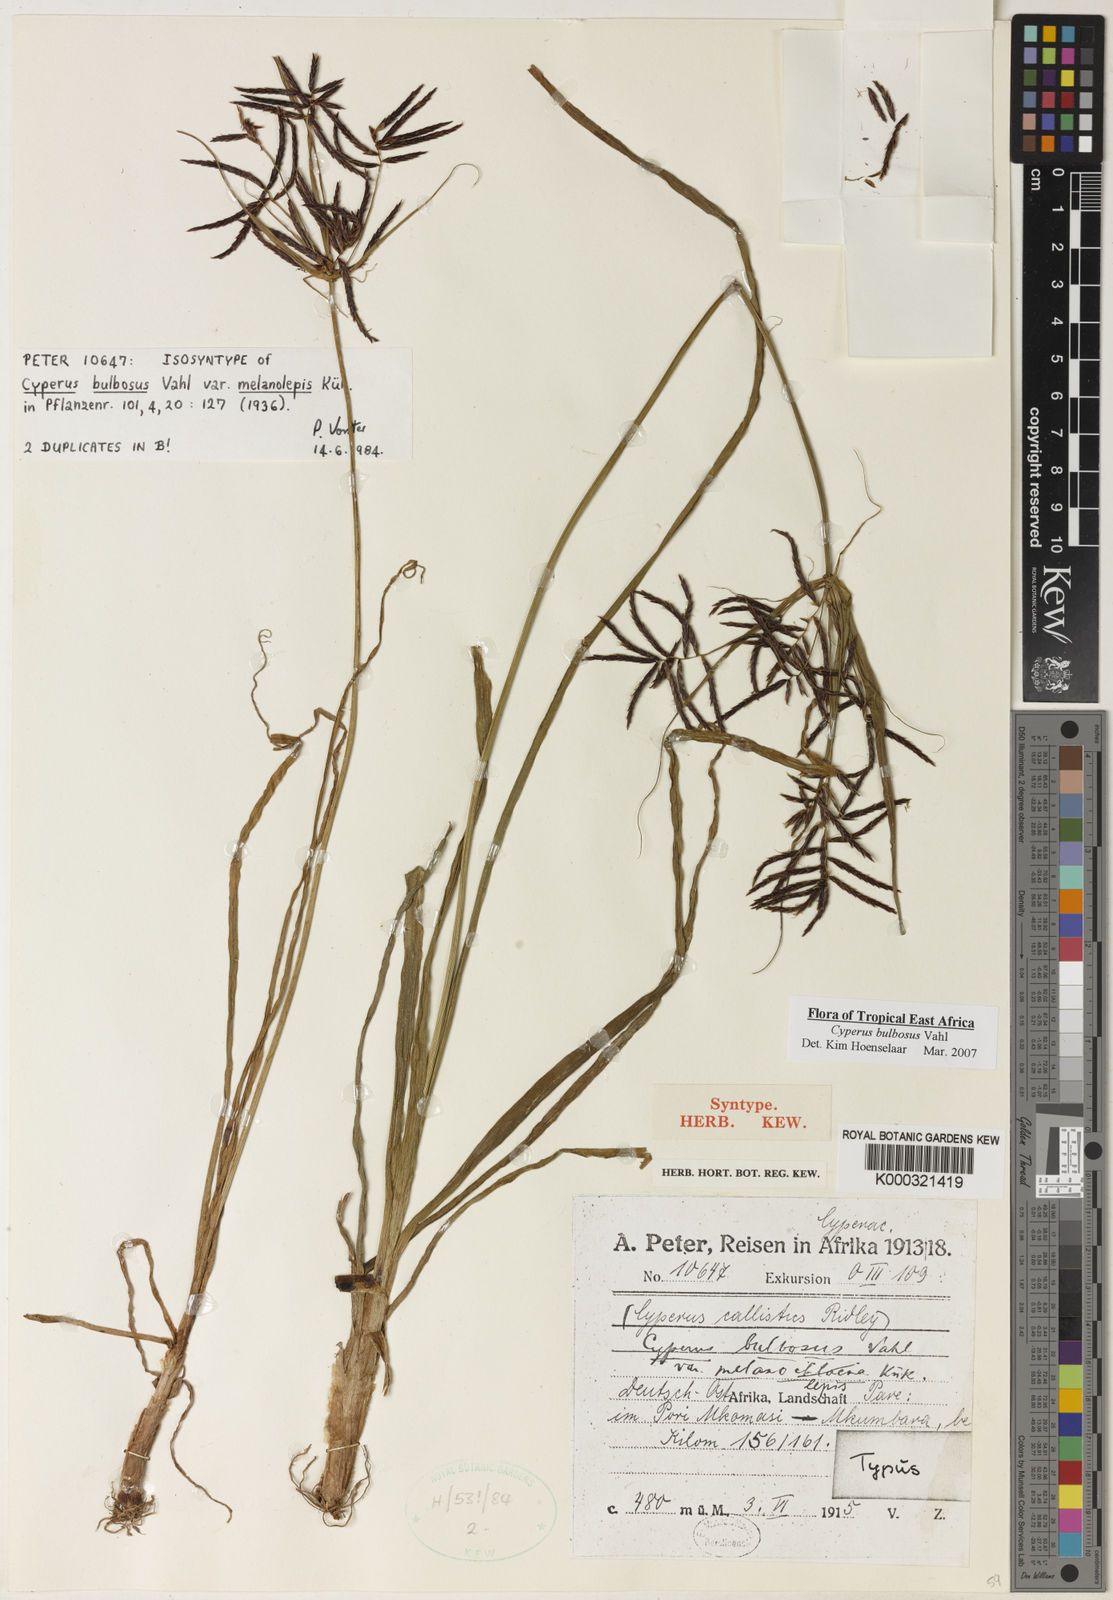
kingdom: Plantae
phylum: Tracheophyta
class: Liliopsida
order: Poales
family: Cyperaceae
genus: Cyperus
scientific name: Cyperus bulbosus
